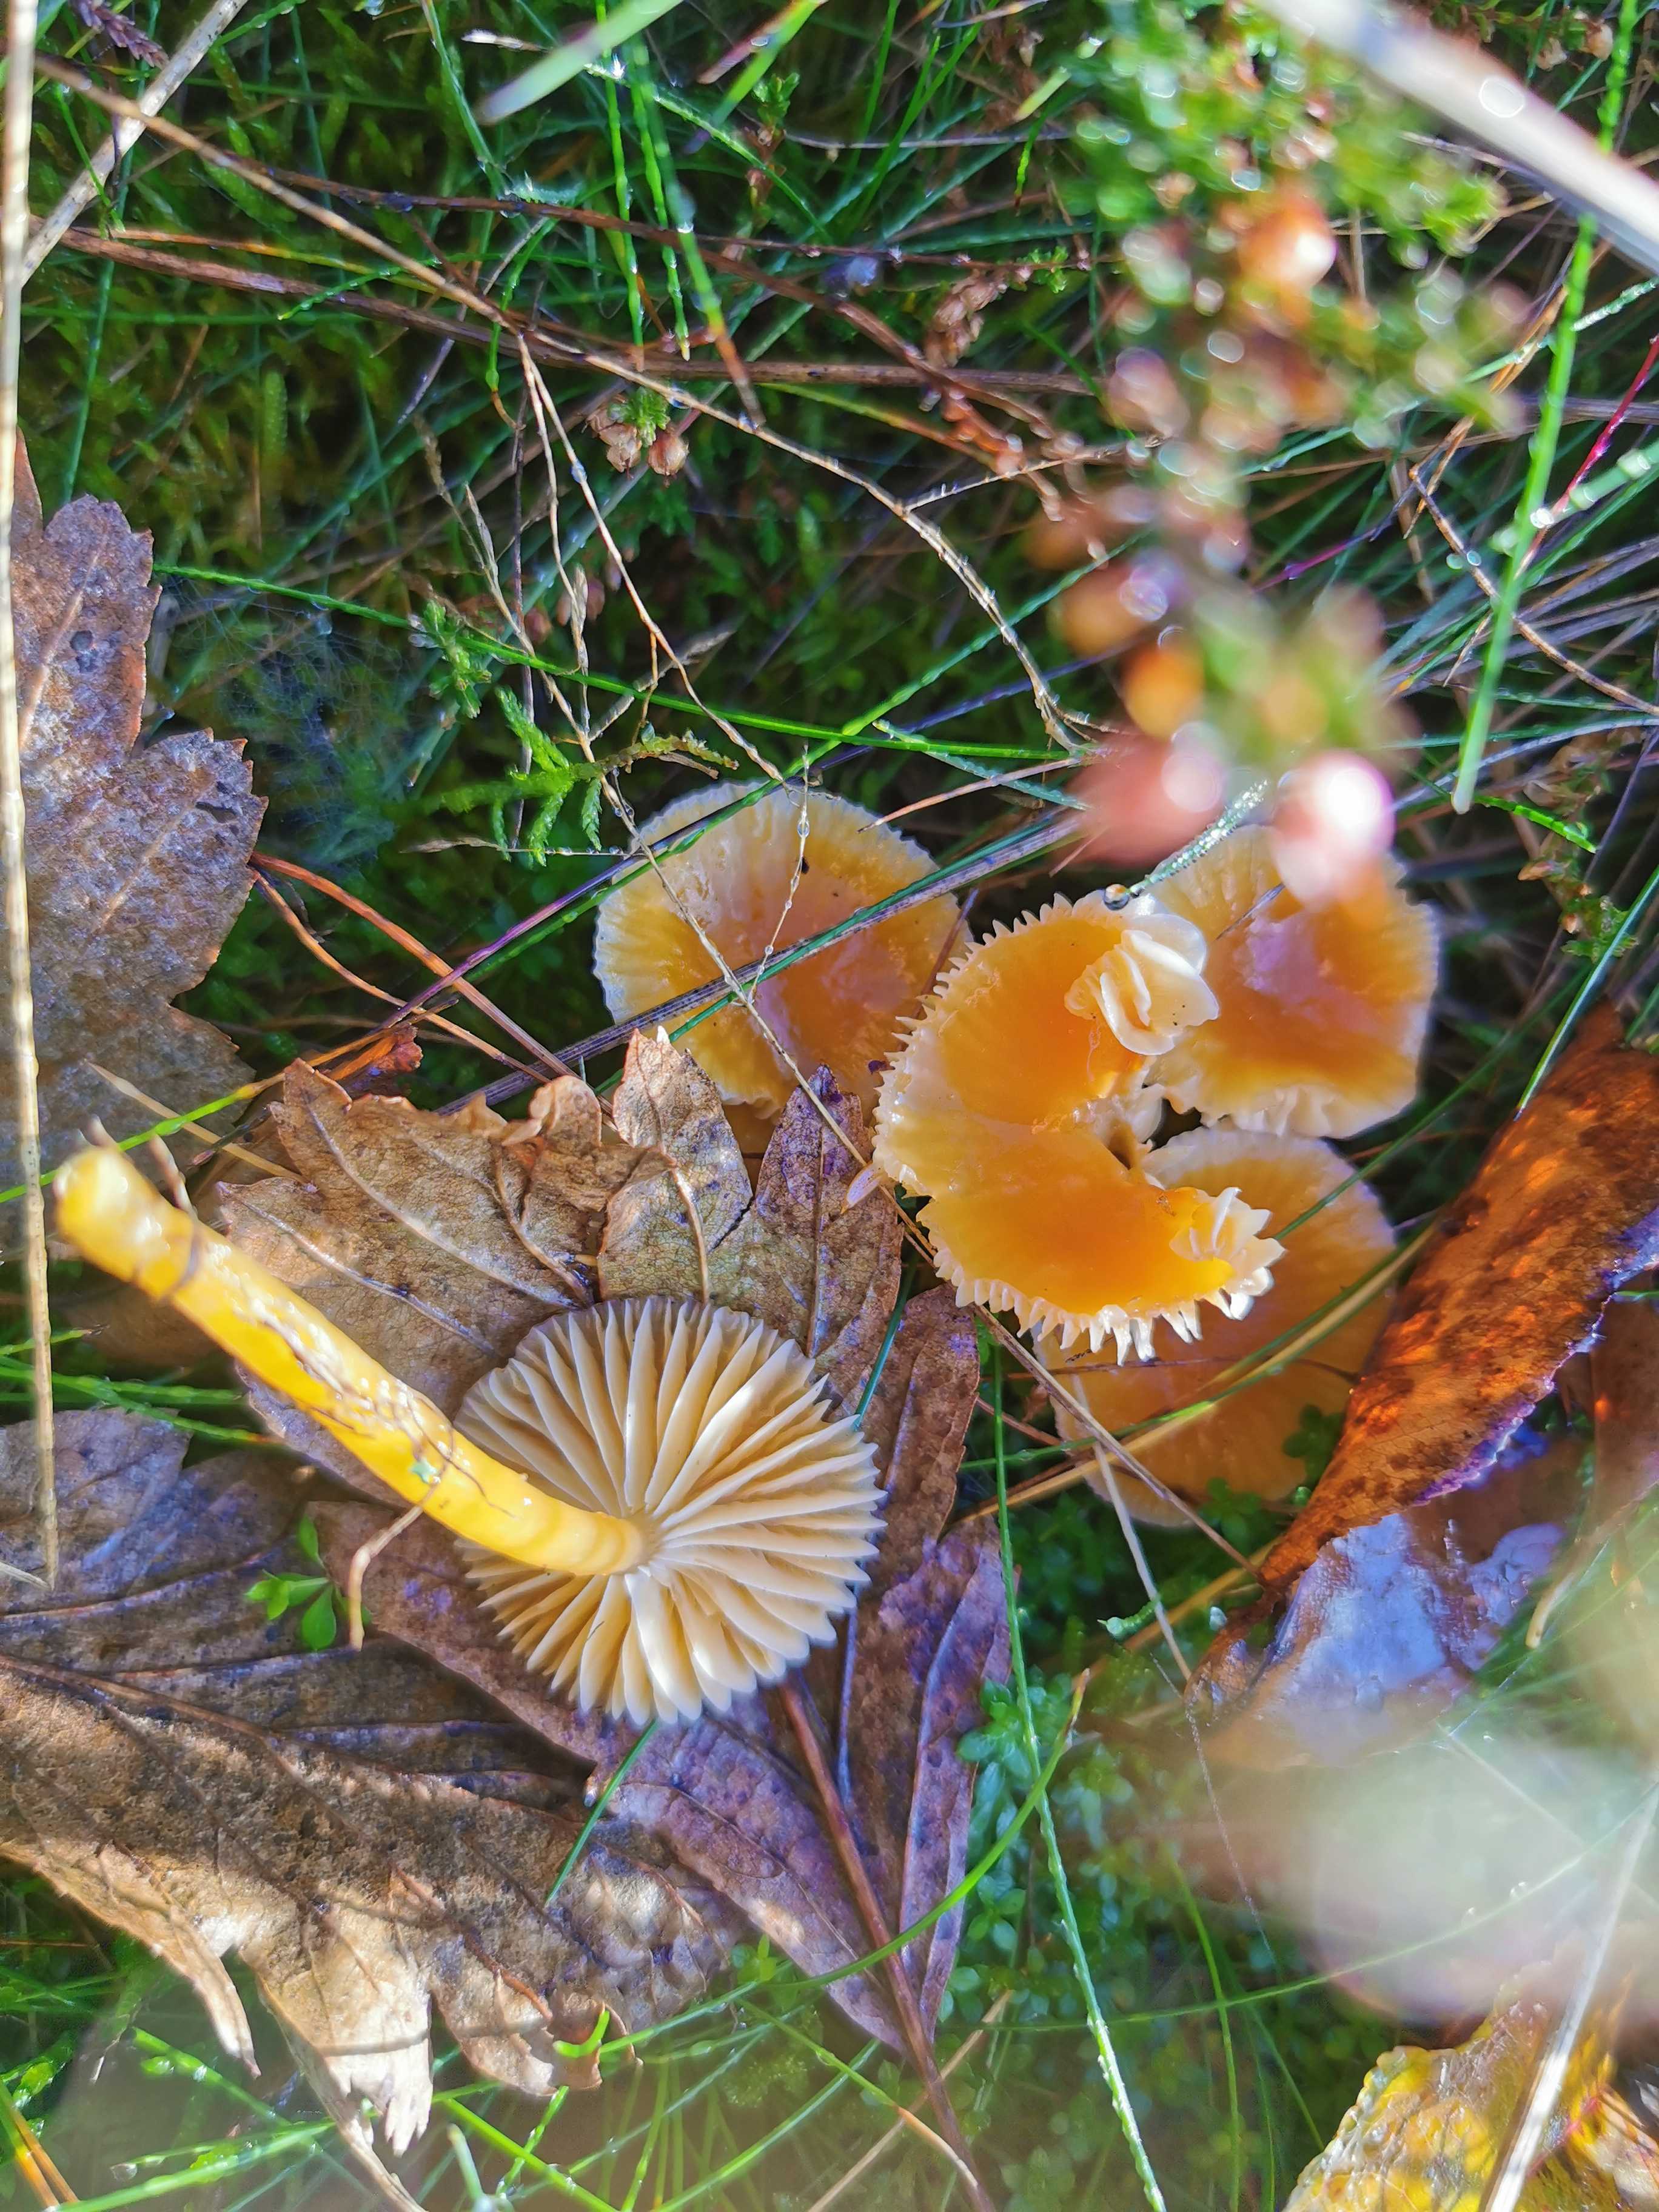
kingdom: Fungi
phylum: Basidiomycota
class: Agaricomycetes
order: Agaricales
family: Hygrophoraceae
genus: Gliophorus
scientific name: Gliophorus laetus
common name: brusk-vokshat
